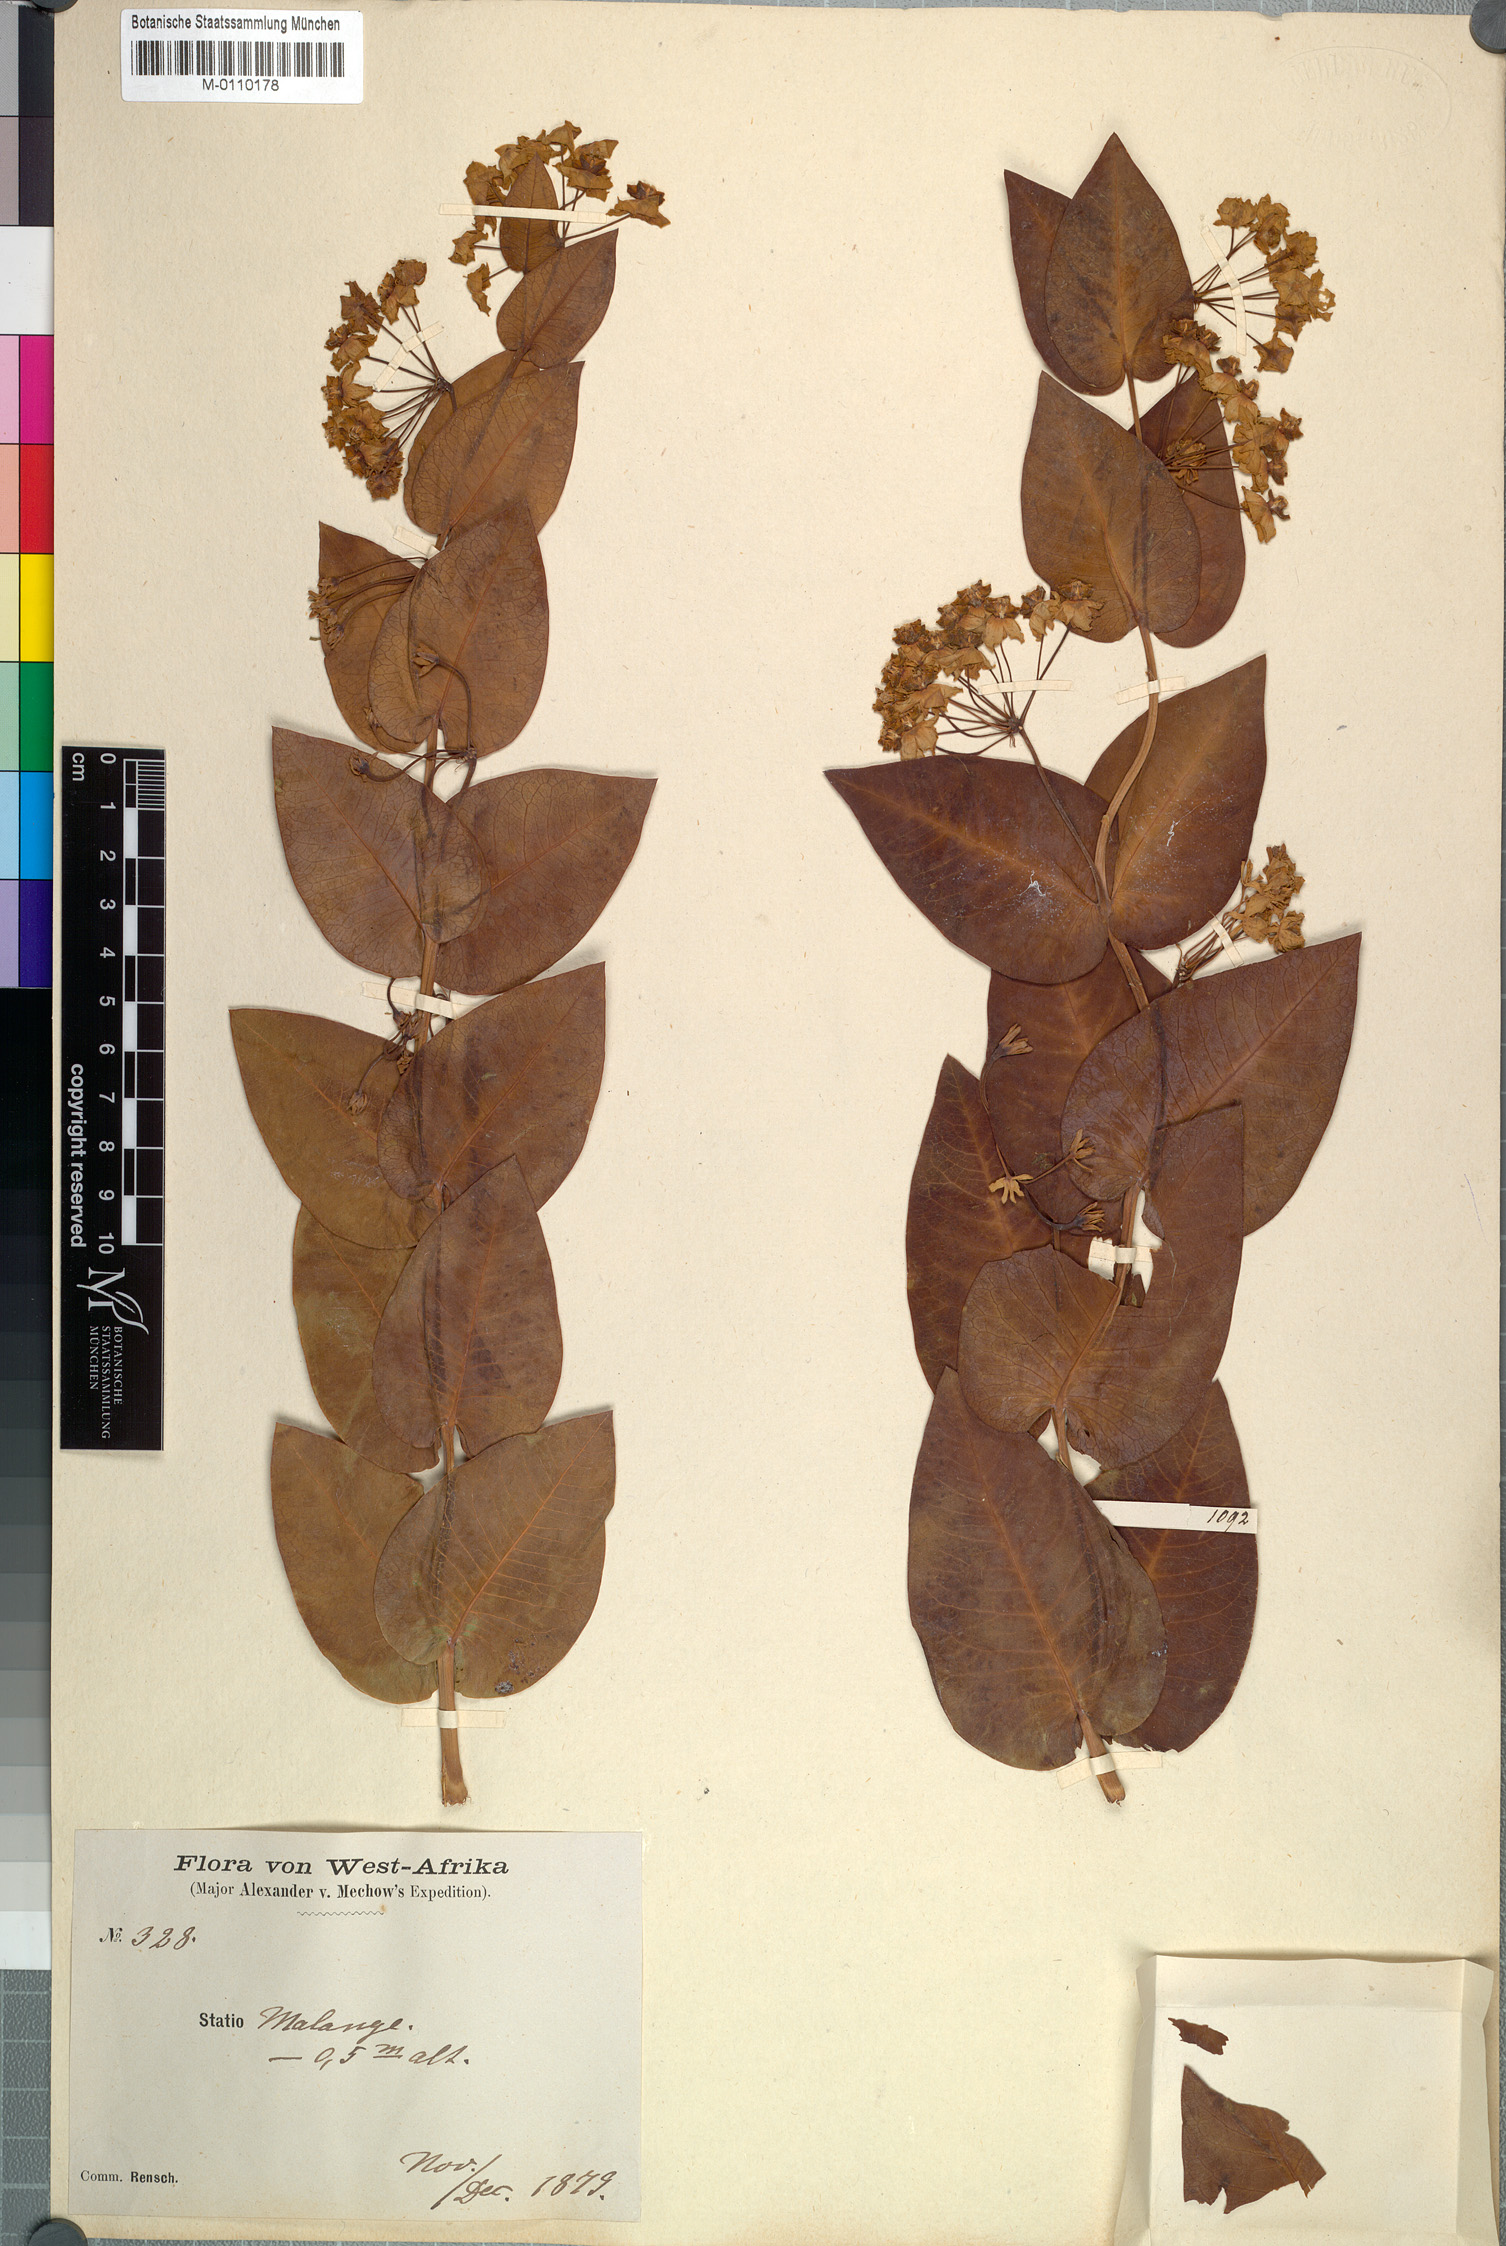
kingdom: Plantae
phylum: Tracheophyta
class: Magnoliopsida
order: Gentianales
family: Apocynaceae
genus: Gomphocarpus
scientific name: Gomphocarpus semiamplectens
